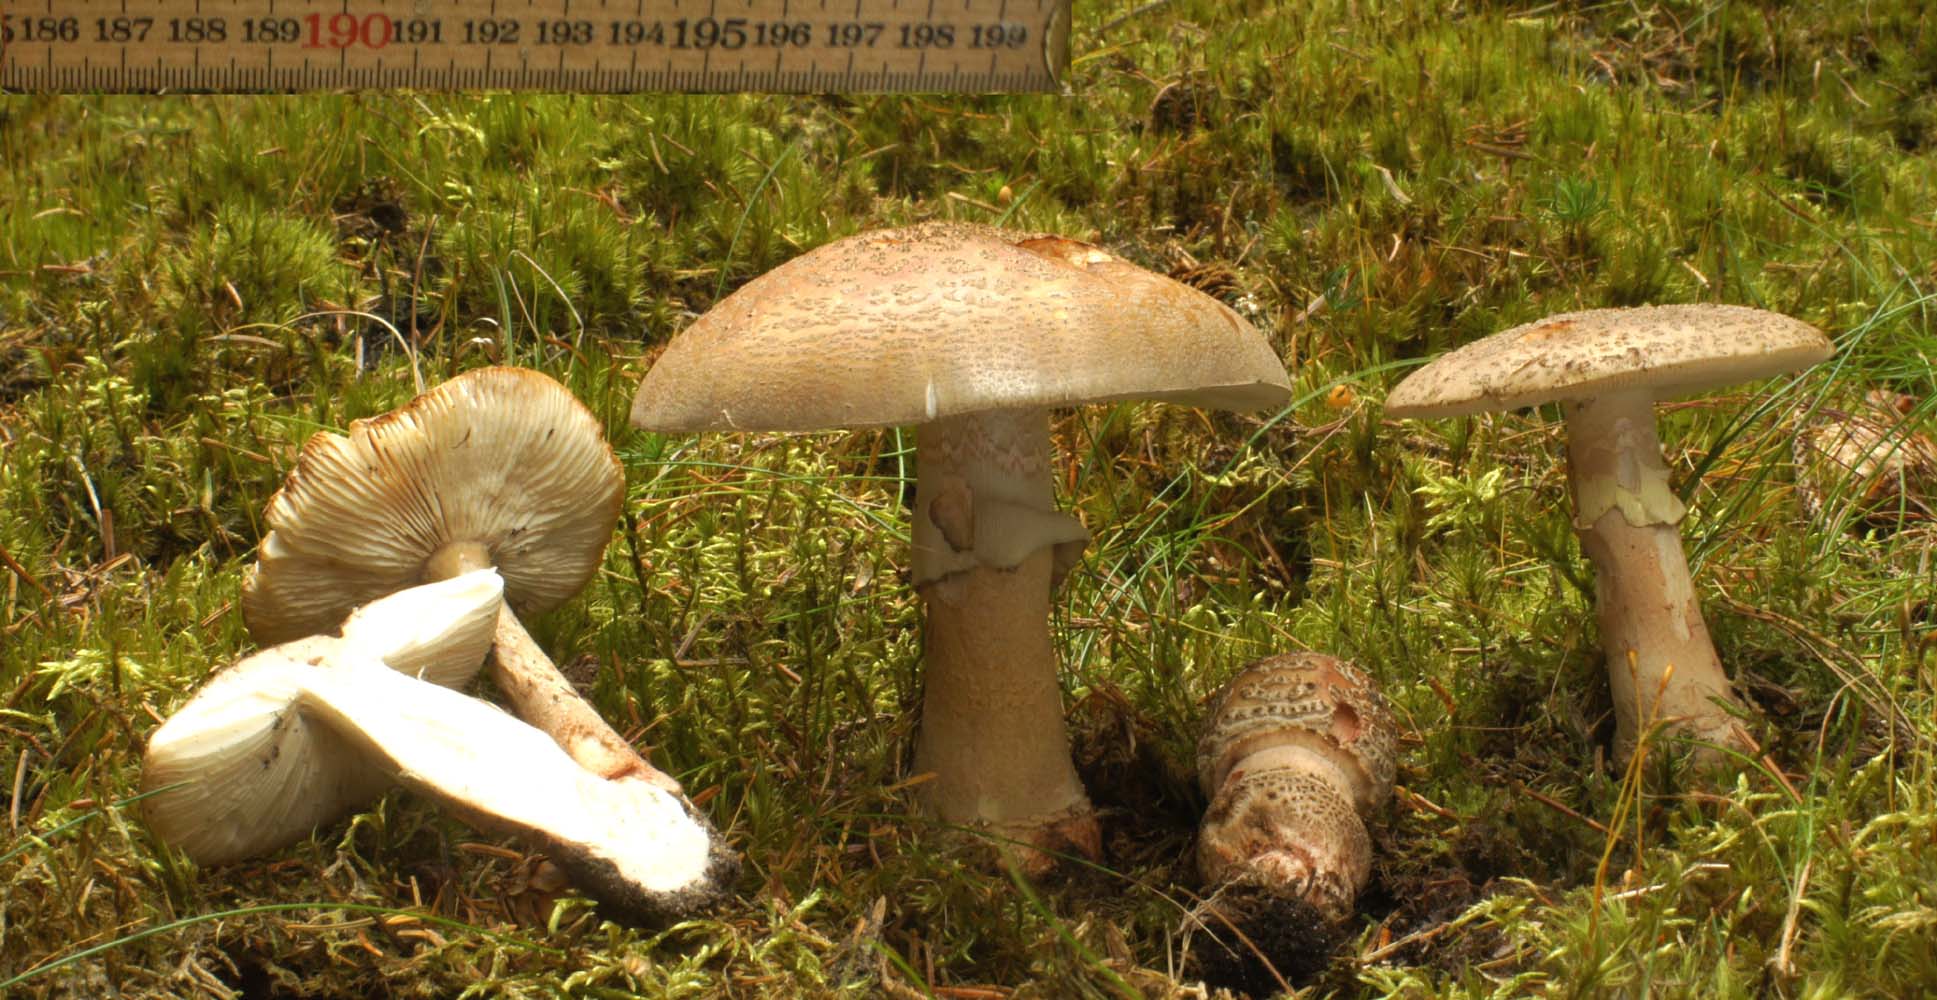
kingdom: Fungi
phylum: Basidiomycota
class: Agaricomycetes
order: Agaricales
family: Amanitaceae
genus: Amanita
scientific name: Amanita rubescens
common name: rødmende fluesvamp
